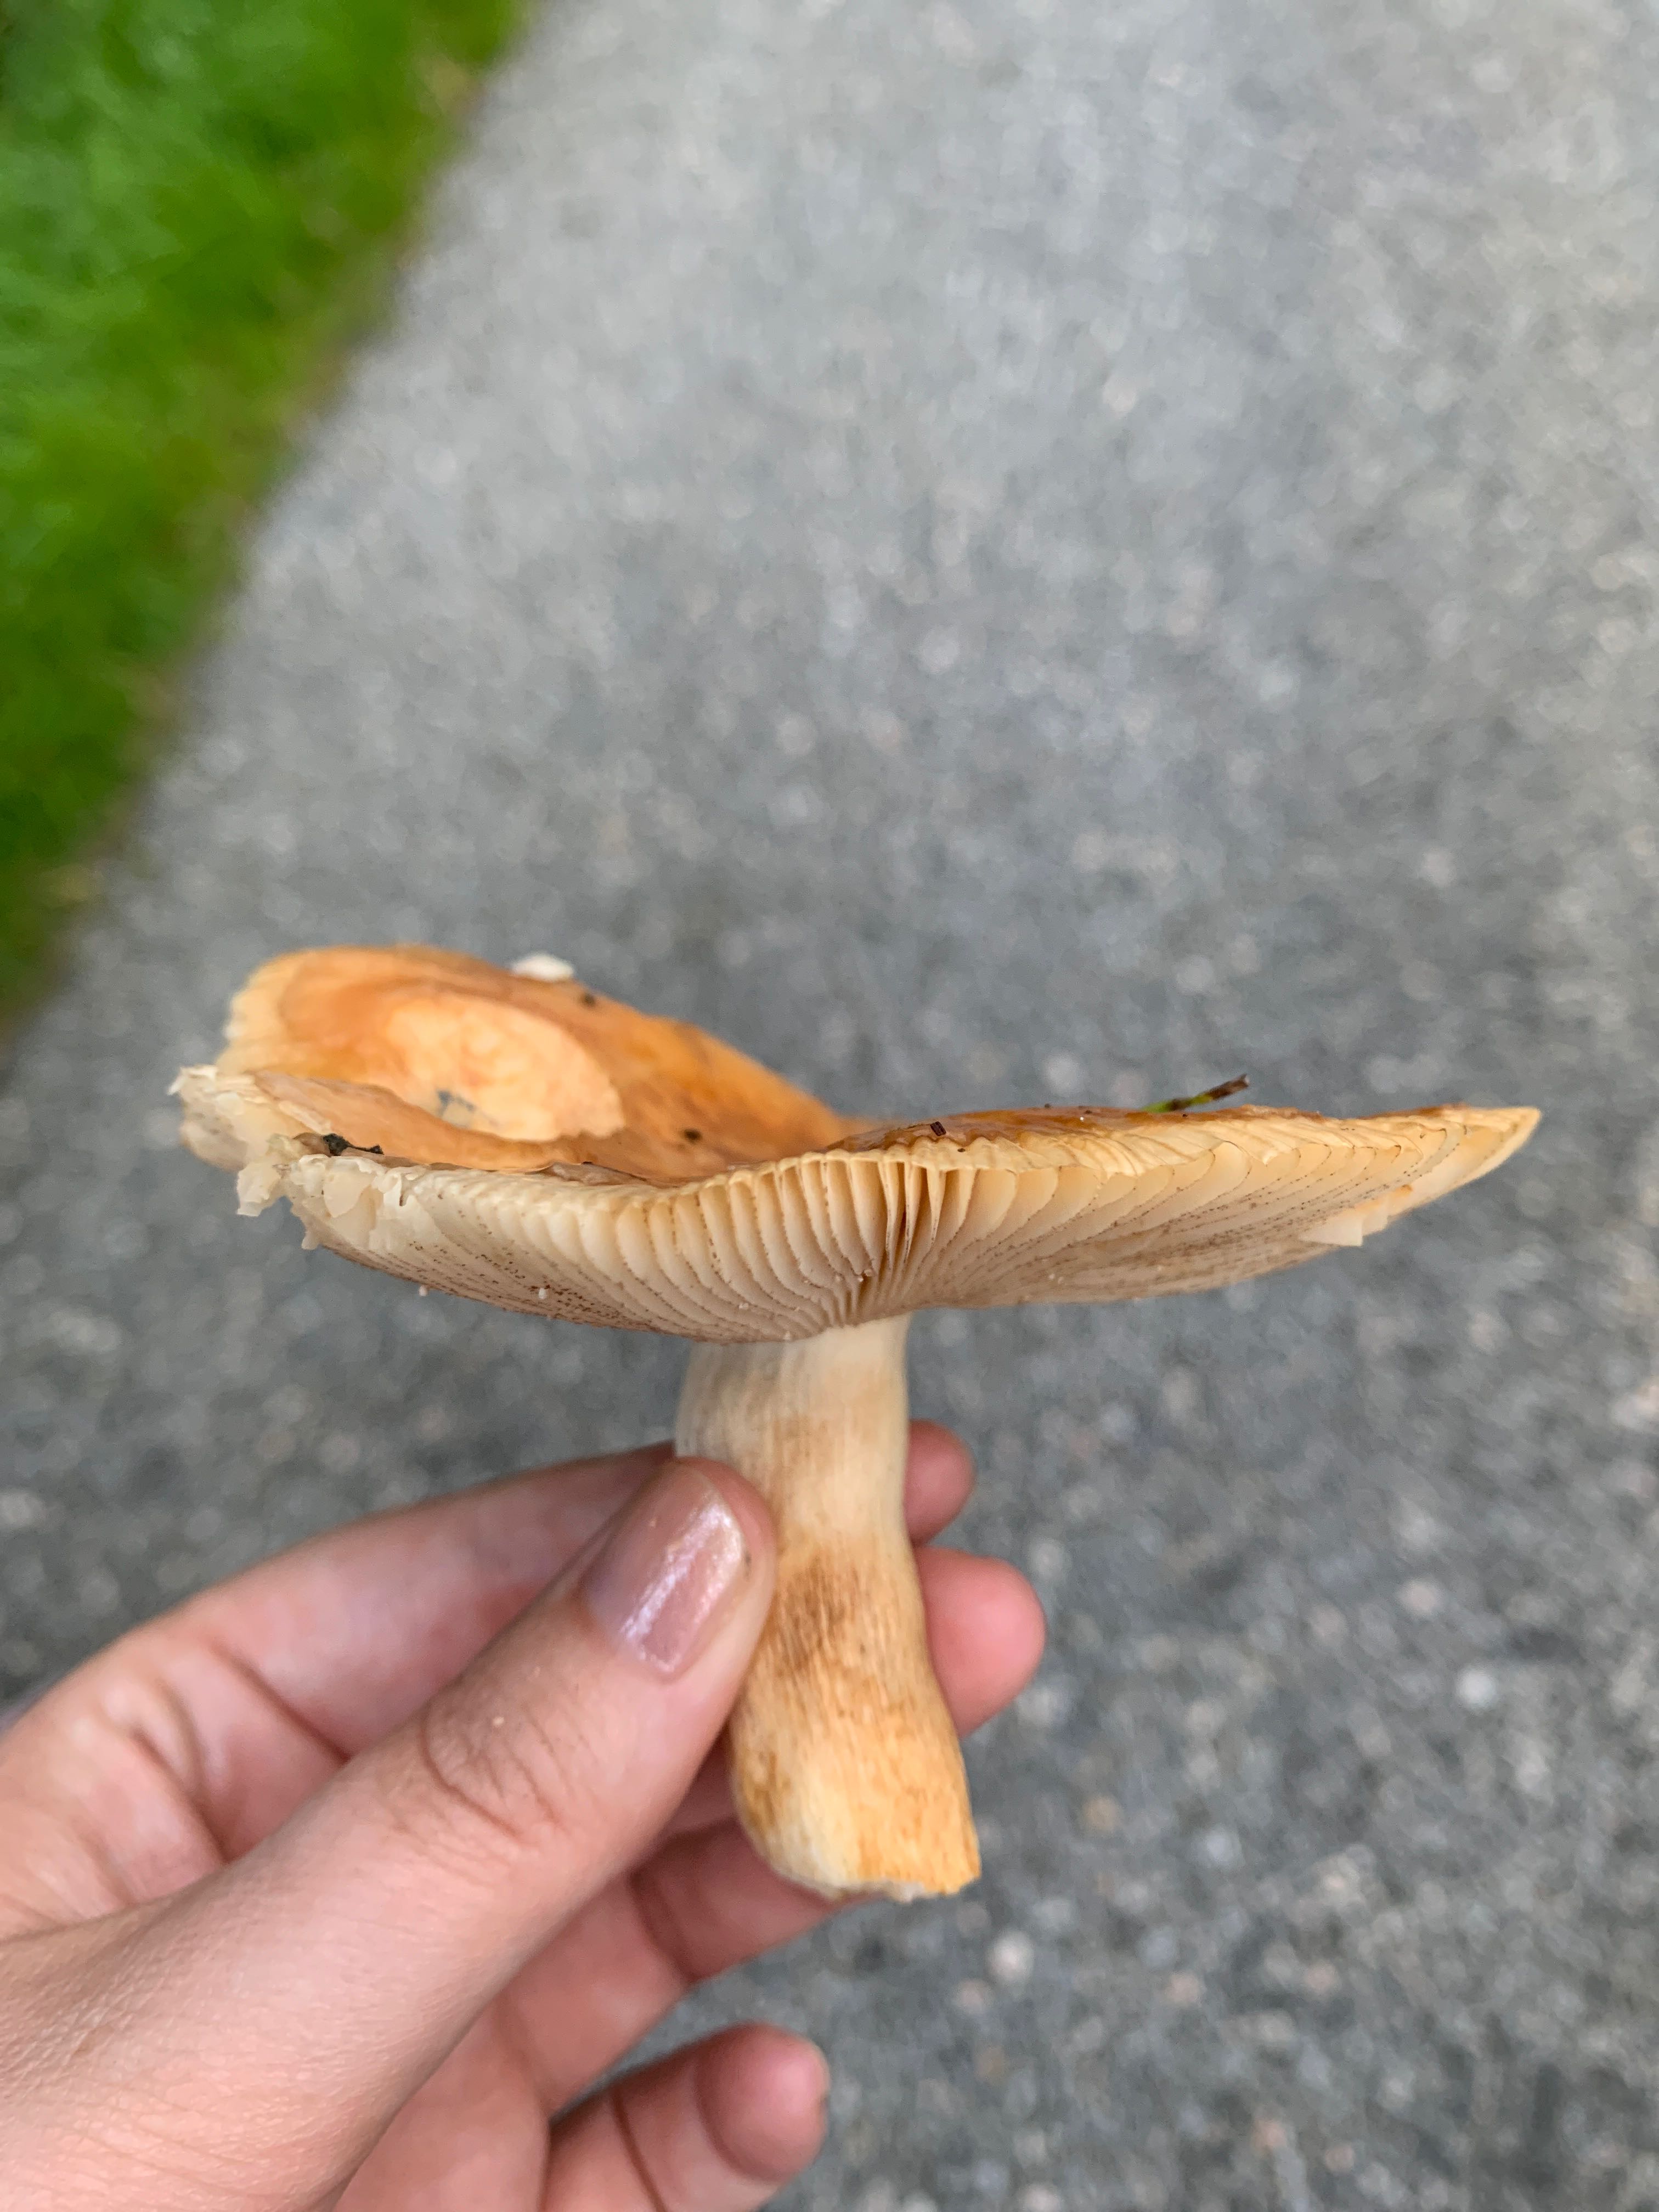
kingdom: Fungi
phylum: Basidiomycota
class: Agaricomycetes
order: Russulales
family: Russulaceae
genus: Russula
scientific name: Russula
